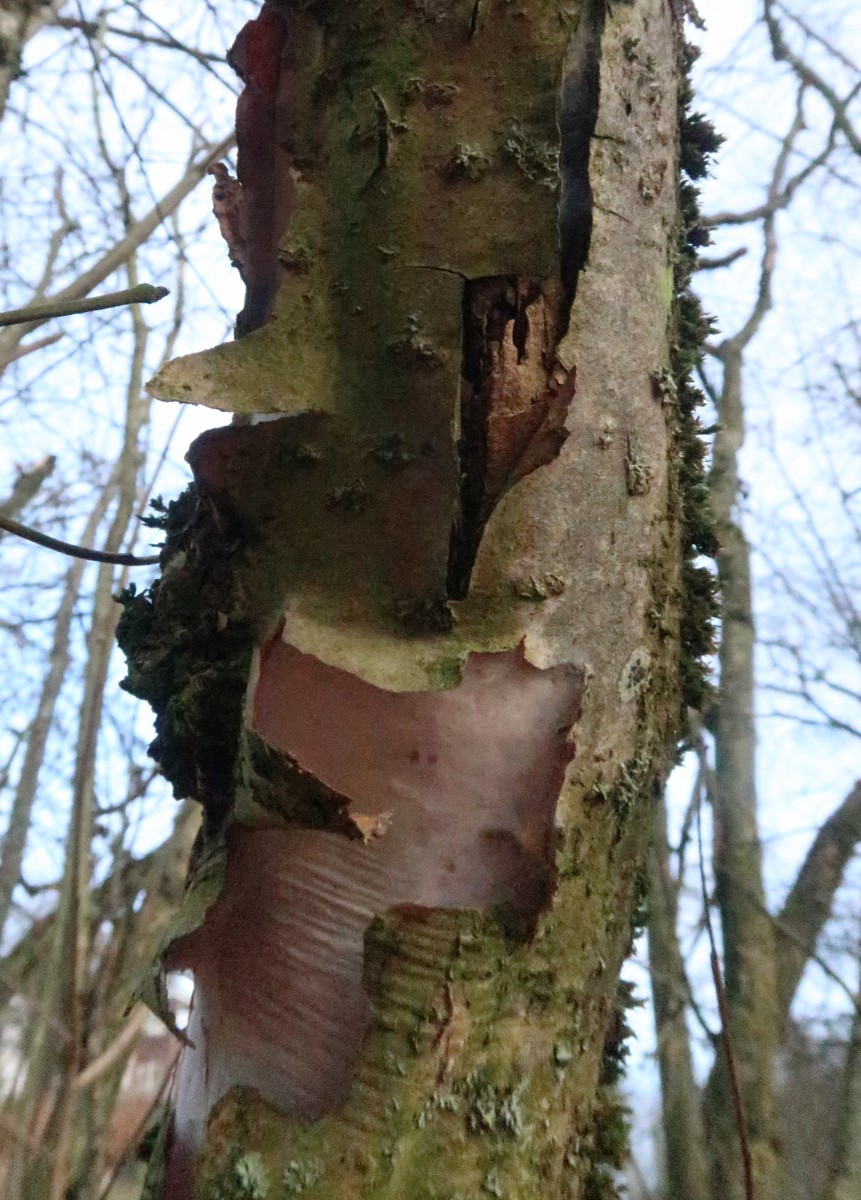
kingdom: Fungi
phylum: Basidiomycota
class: Agaricomycetes
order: Corticiales
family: Vuilleminiaceae
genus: Vuilleminia
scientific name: Vuilleminia coryli
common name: hassel-barksprænger
